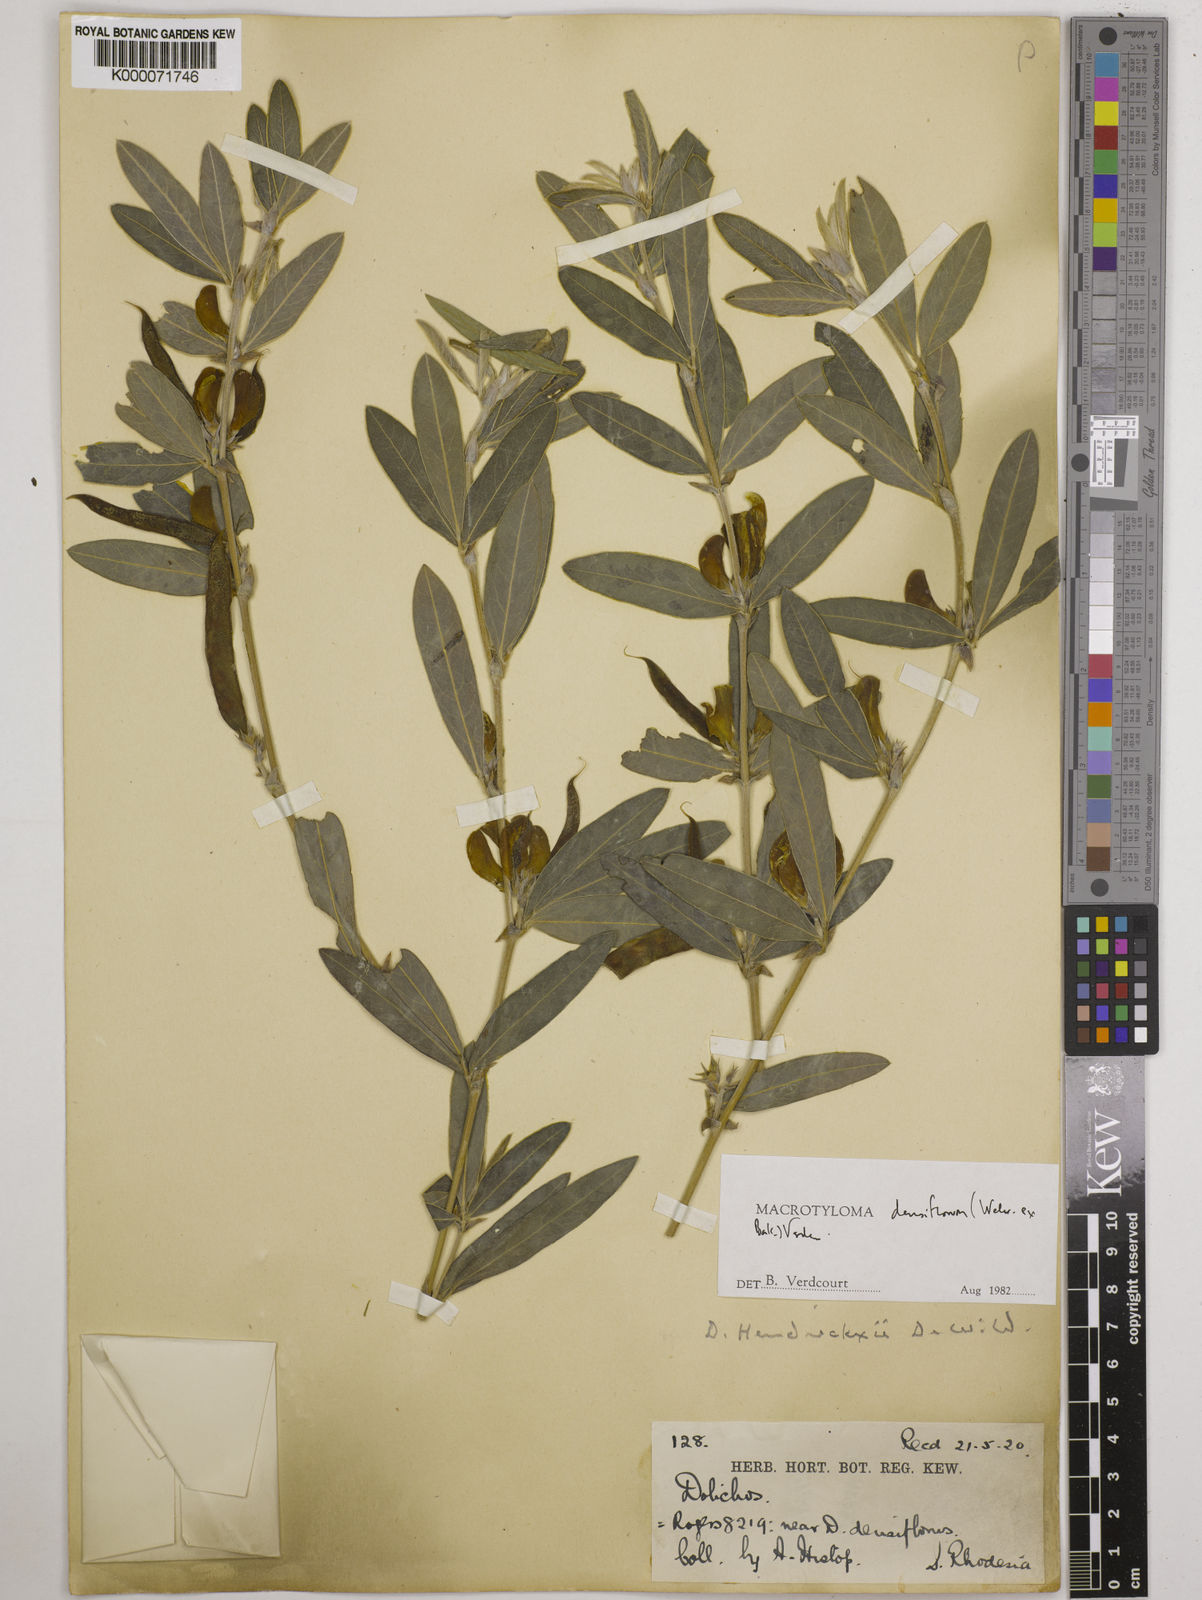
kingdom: Plantae
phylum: Tracheophyta
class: Magnoliopsida
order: Fabales
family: Fabaceae
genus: Macrotyloma
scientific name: Macrotyloma densiflorum
